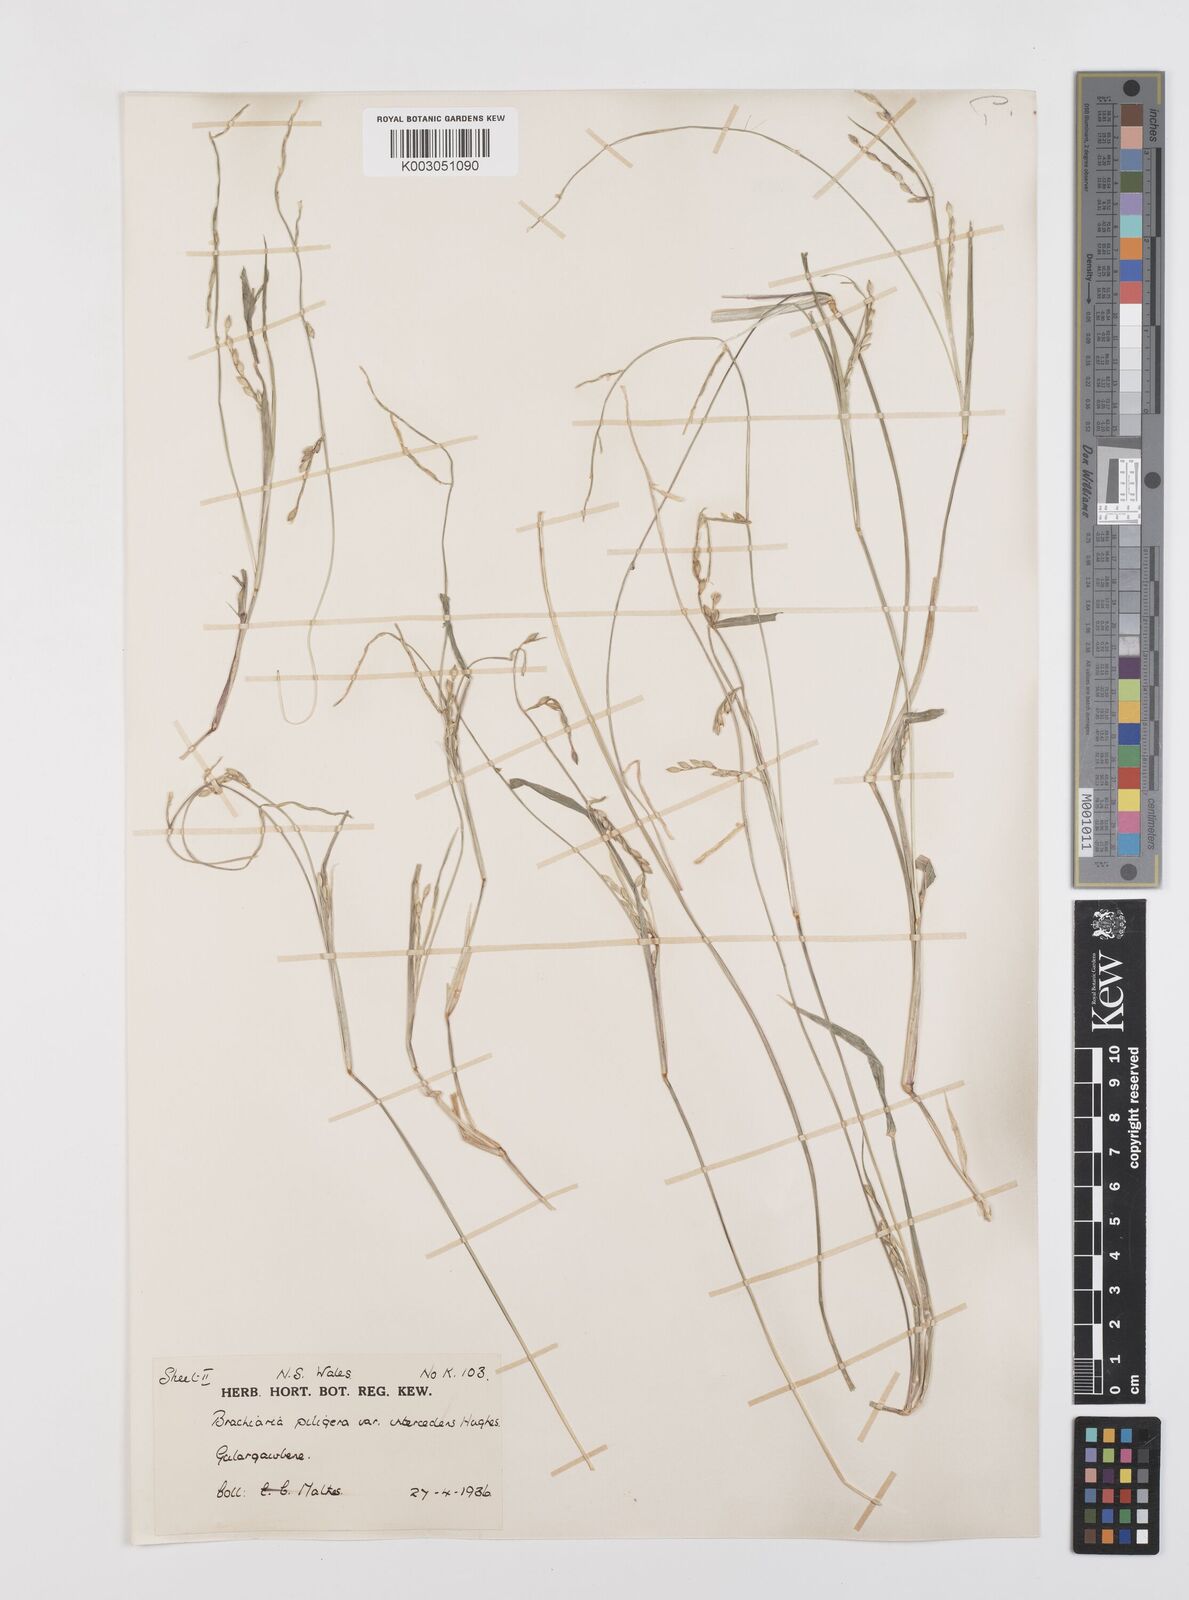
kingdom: Plantae
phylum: Tracheophyta
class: Liliopsida
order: Poales
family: Poaceae
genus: Urochloa
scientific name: Urochloa piligera
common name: Wattle signalgrass
